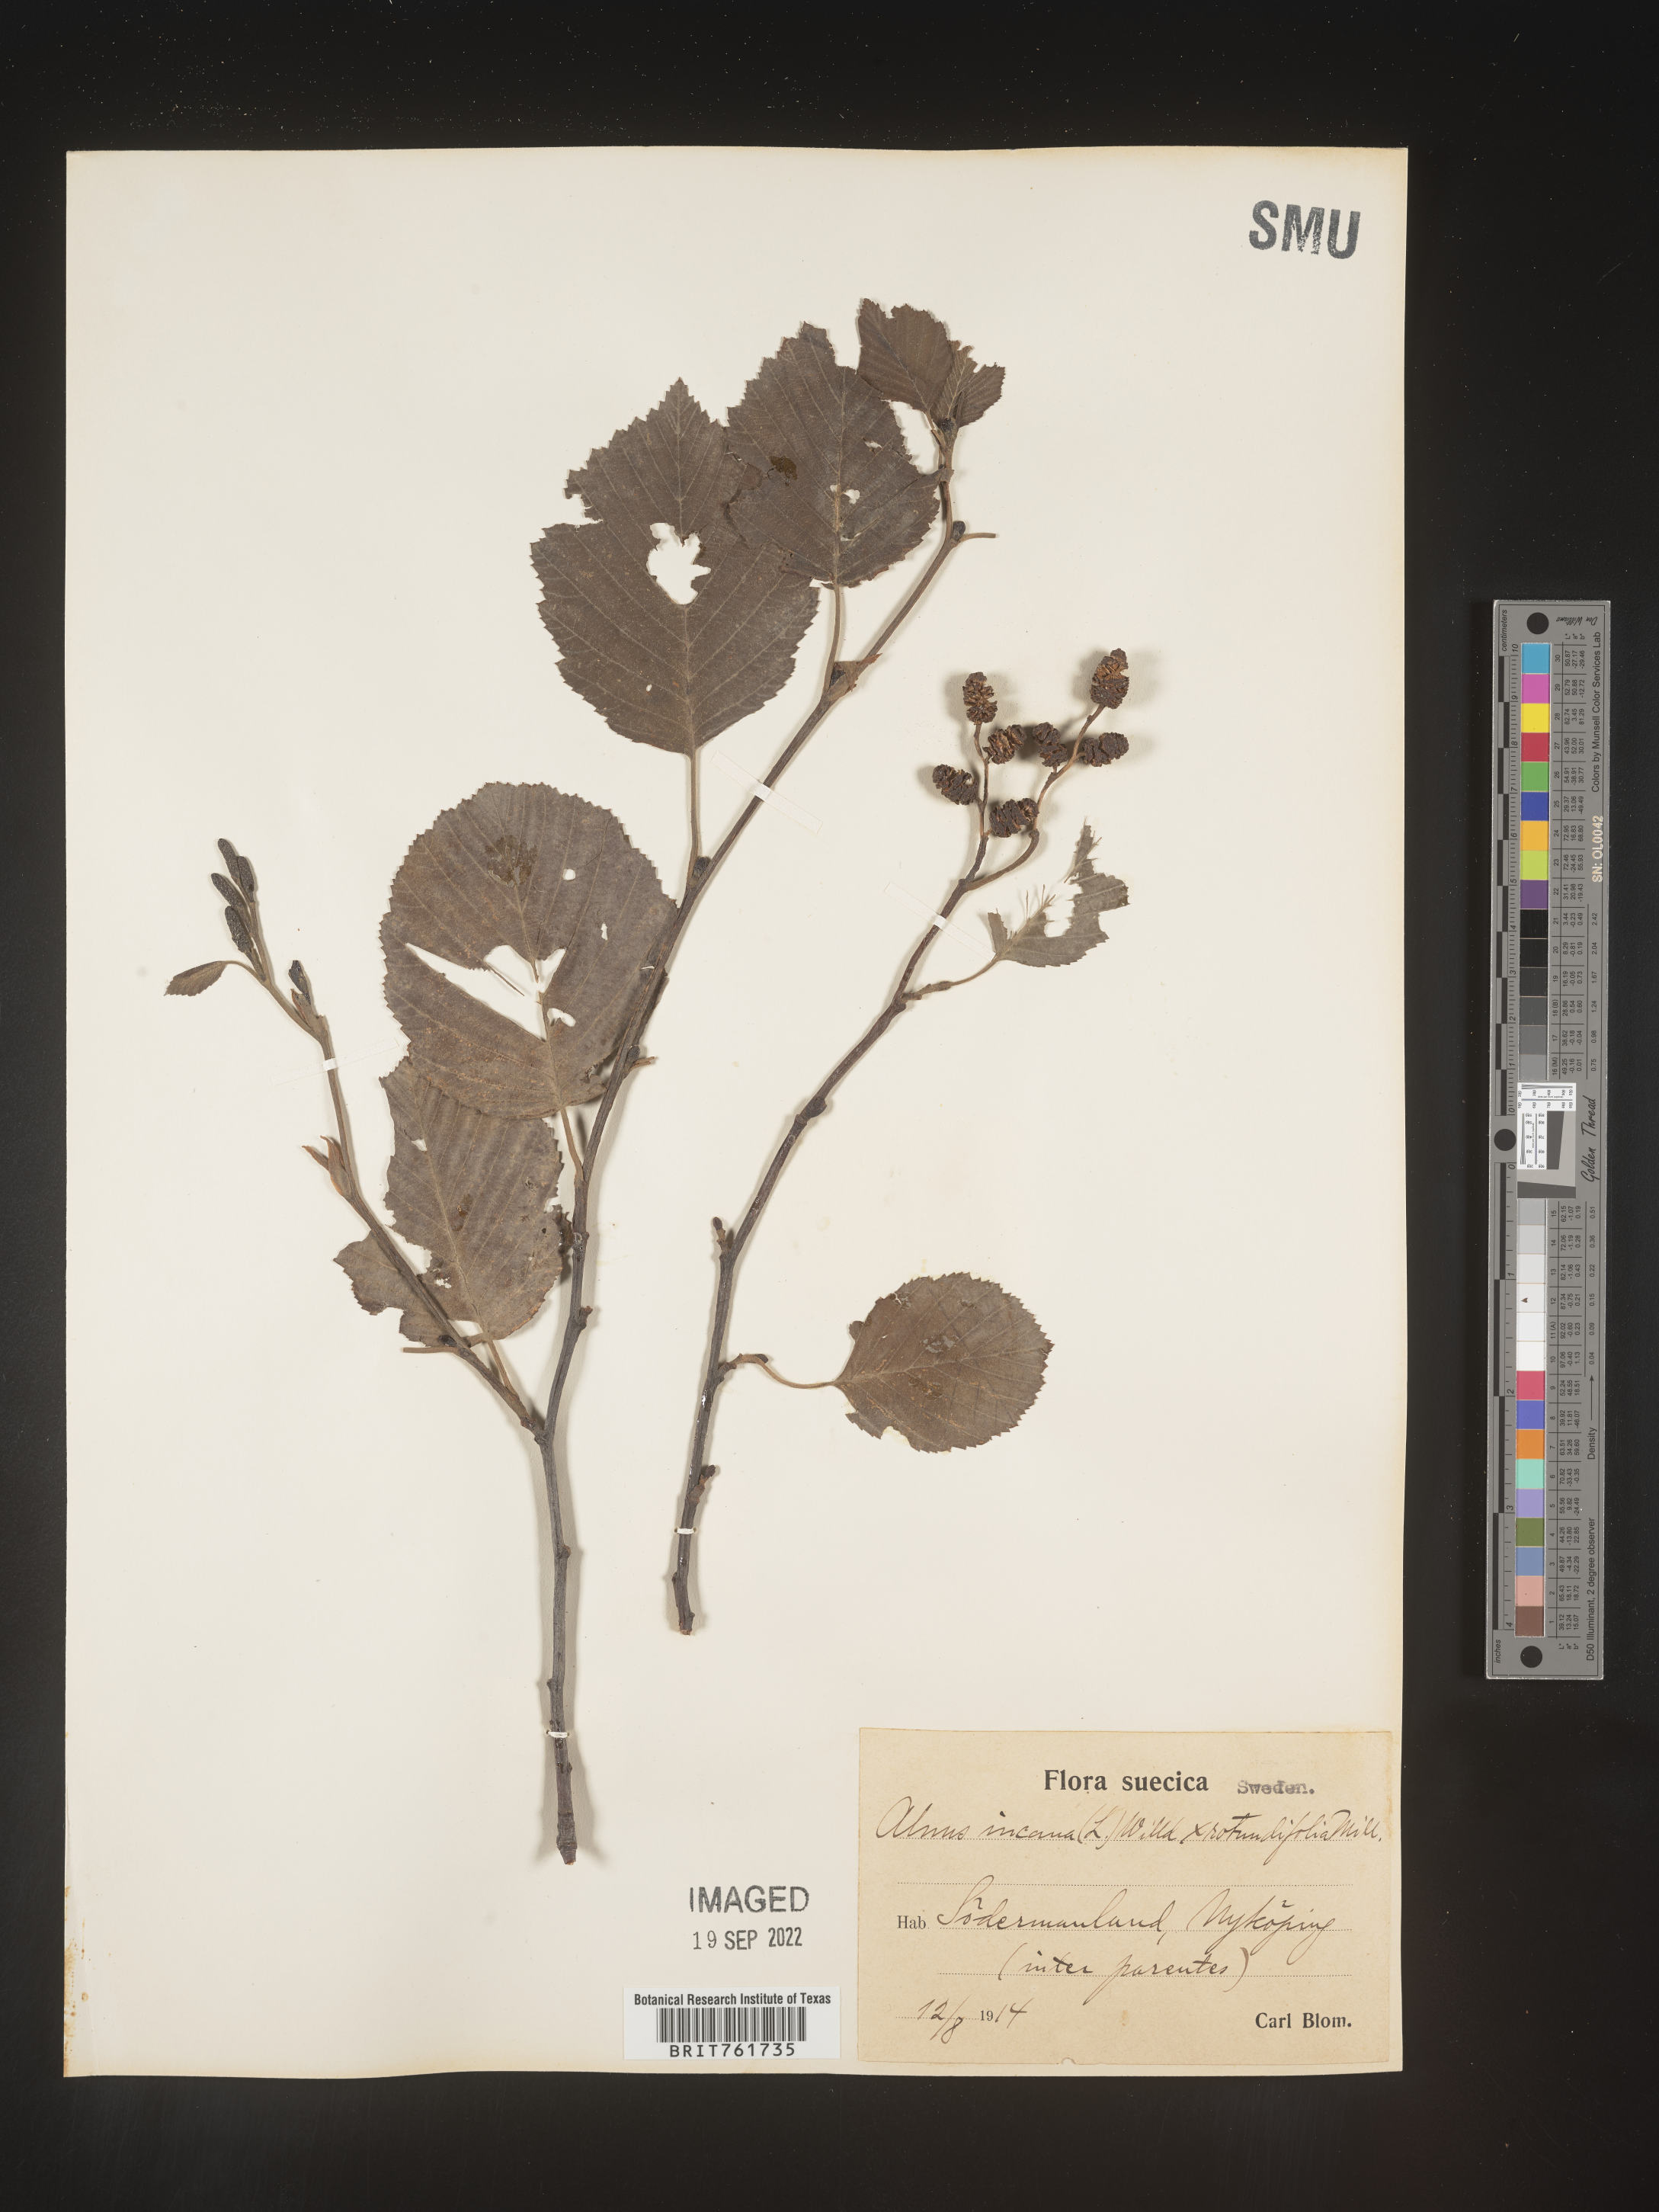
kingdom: Plantae
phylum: Tracheophyta
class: Magnoliopsida
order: Fagales
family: Betulaceae
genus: Alnus
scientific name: Alnus
